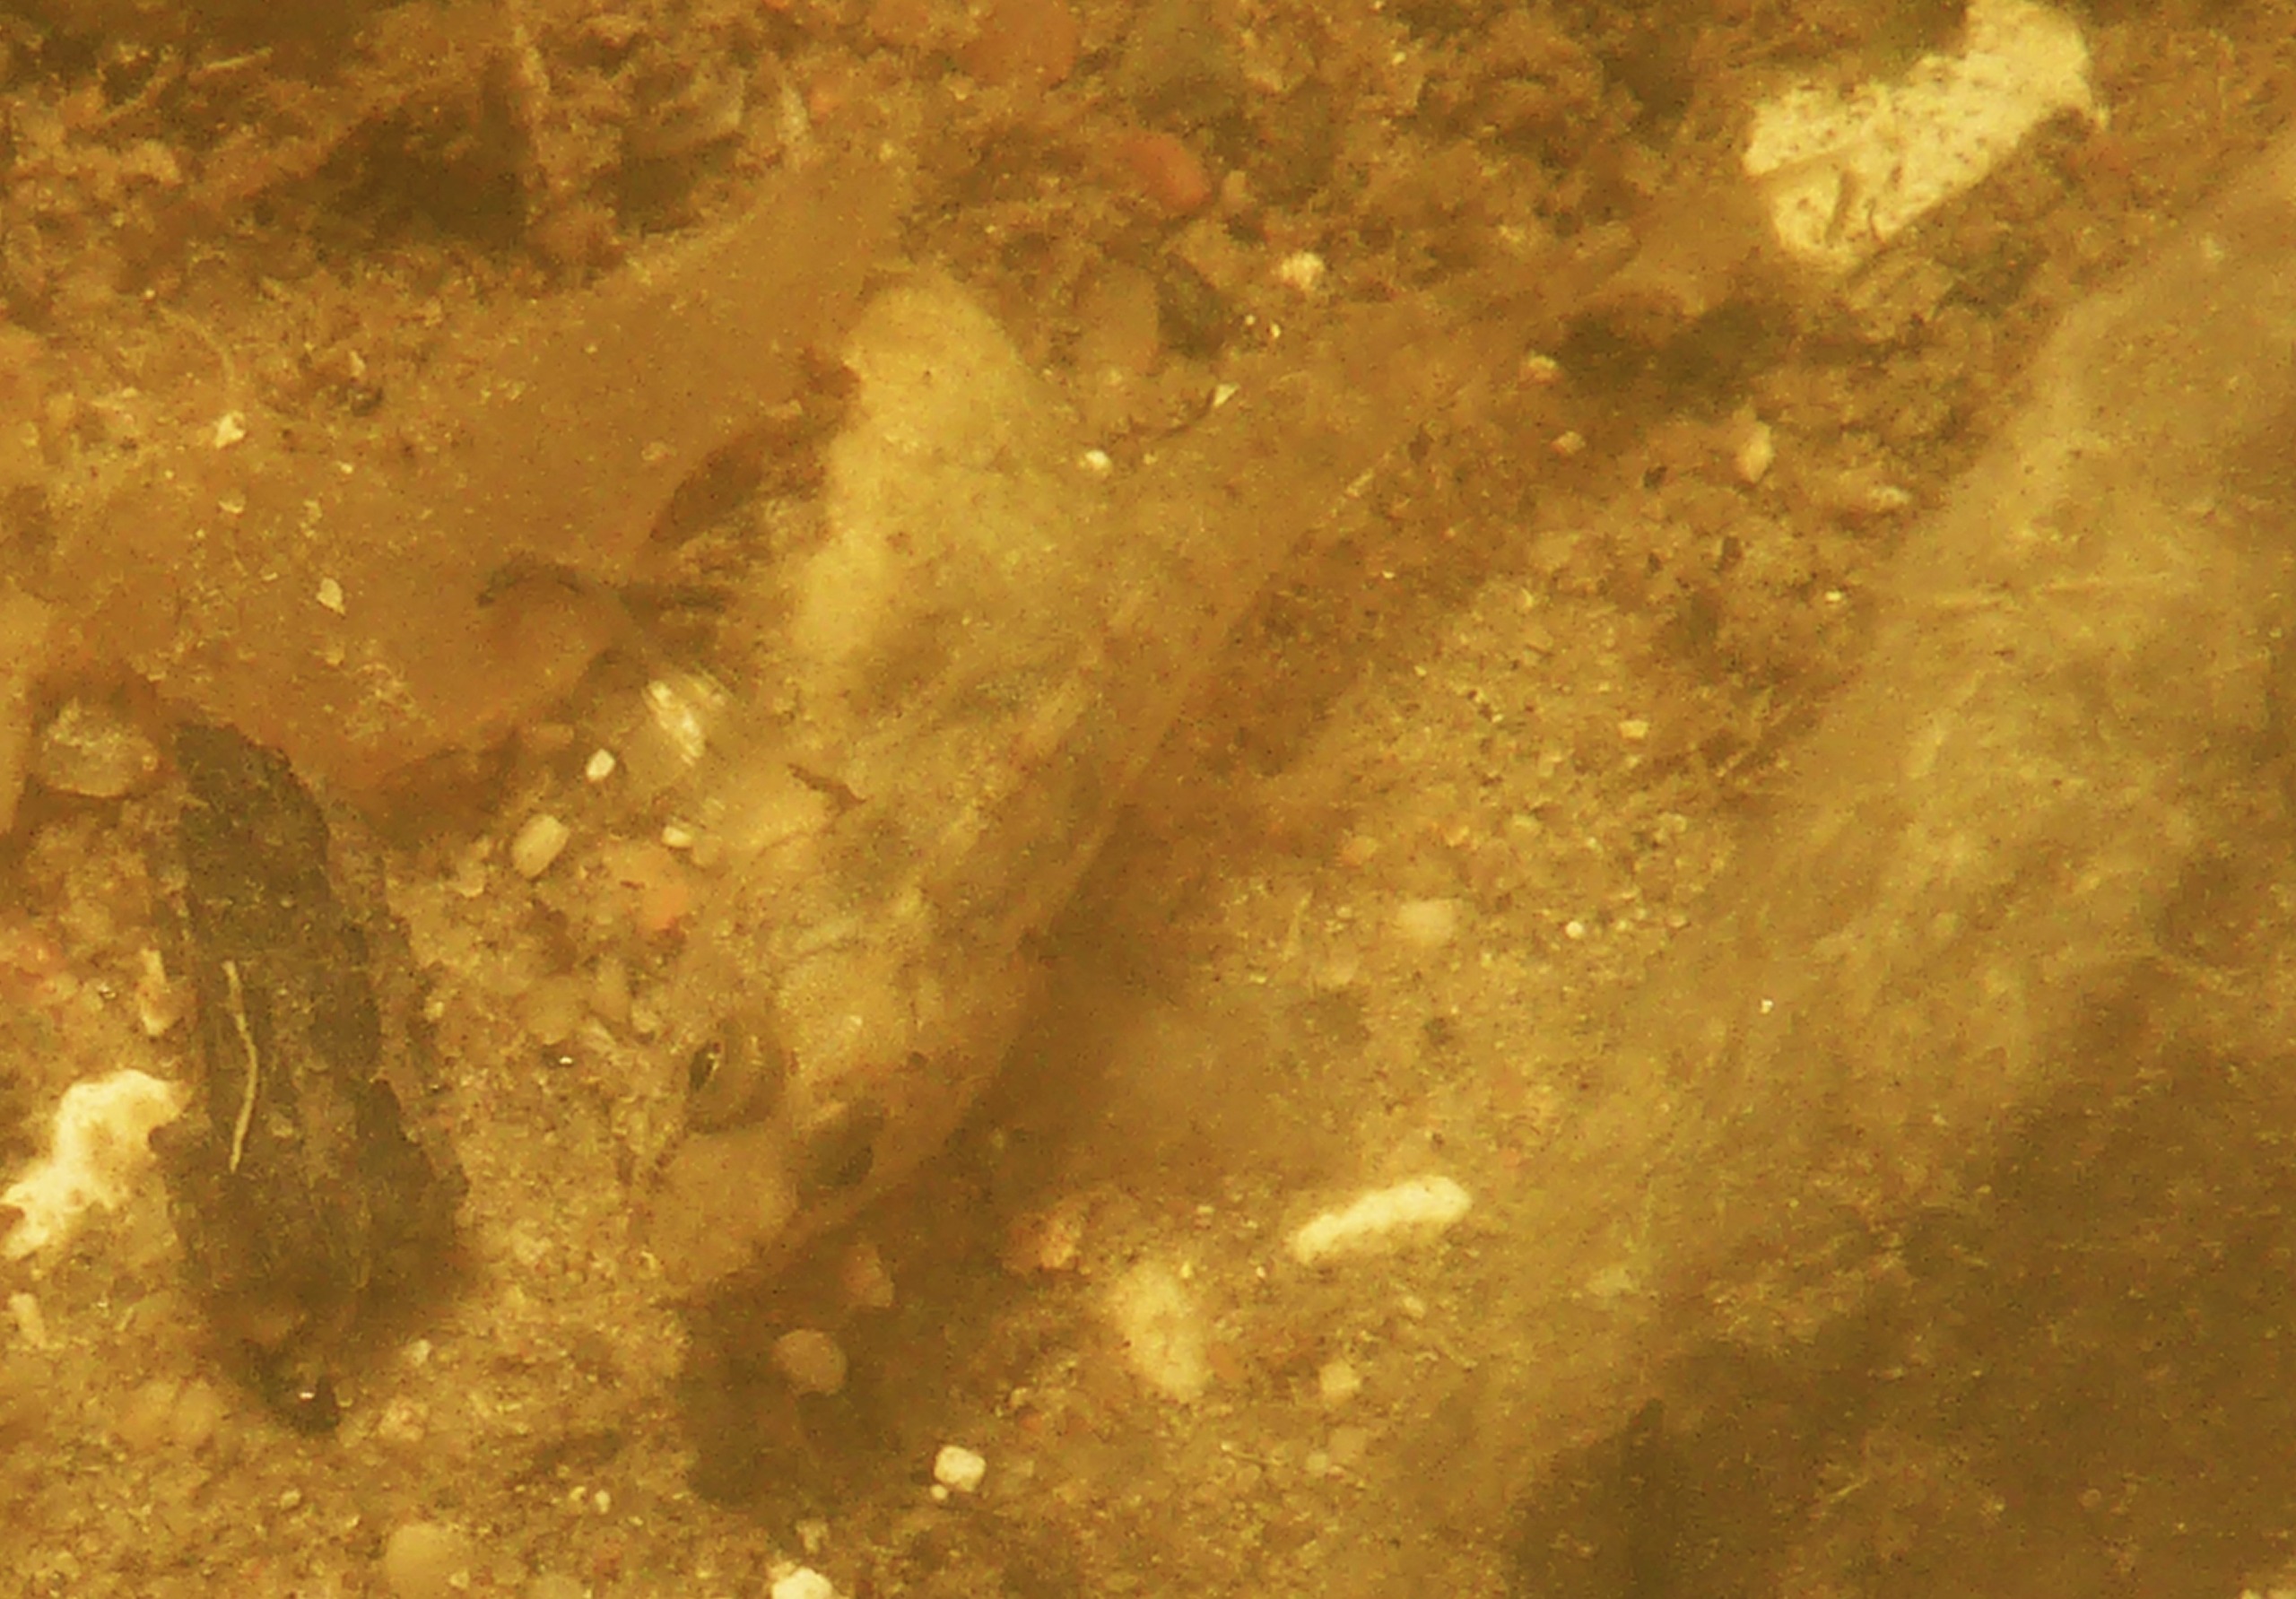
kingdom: Animalia
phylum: Chordata
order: Perciformes
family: Gobiidae
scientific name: Gobiidae
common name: Kutlingefamilien
